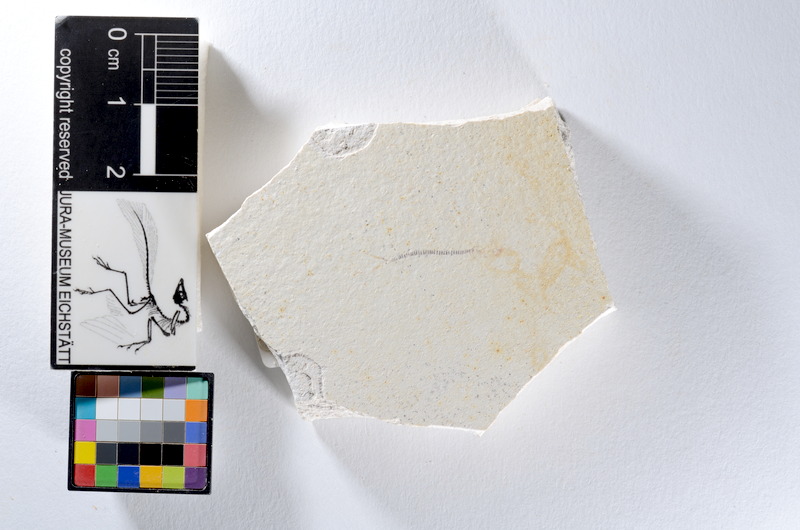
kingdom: Animalia
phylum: Chordata
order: Salmoniformes
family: Orthogonikleithridae
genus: Orthogonikleithrus
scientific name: Orthogonikleithrus hoelli
